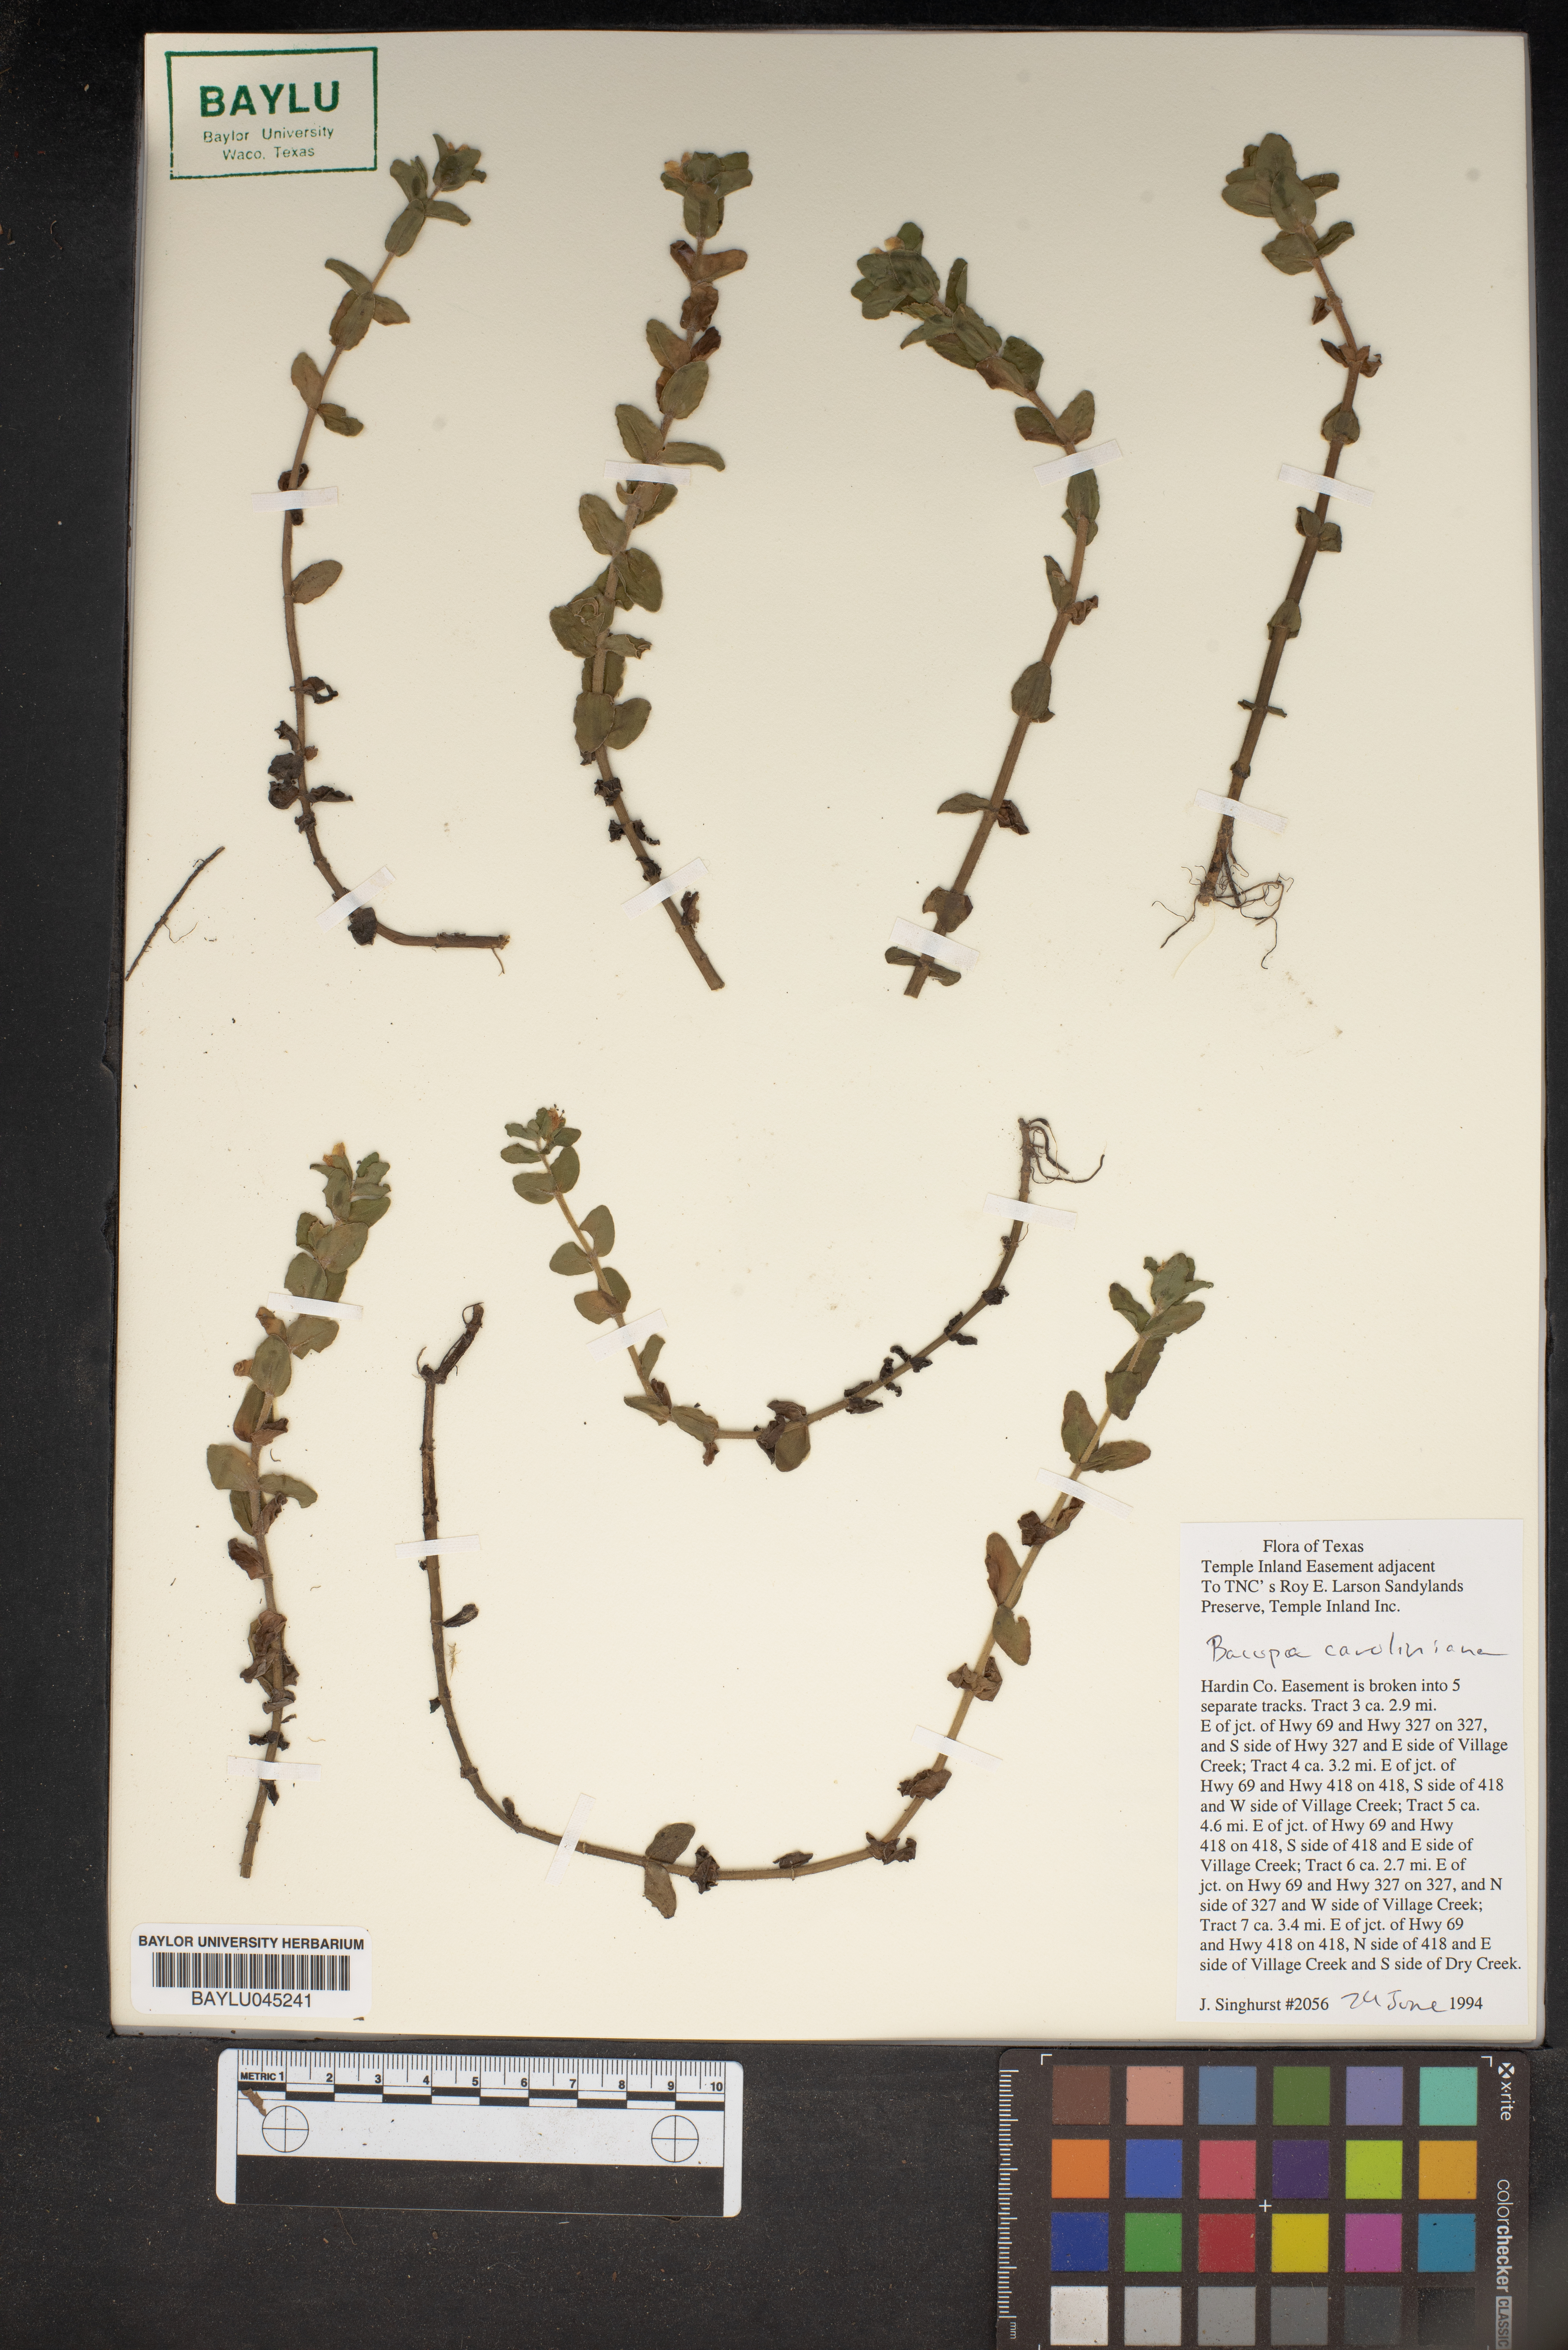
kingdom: Plantae
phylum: Tracheophyta
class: Magnoliopsida
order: Lamiales
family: Plantaginaceae
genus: Bacopa
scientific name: Bacopa caroliniana
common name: Lemon bacopa
